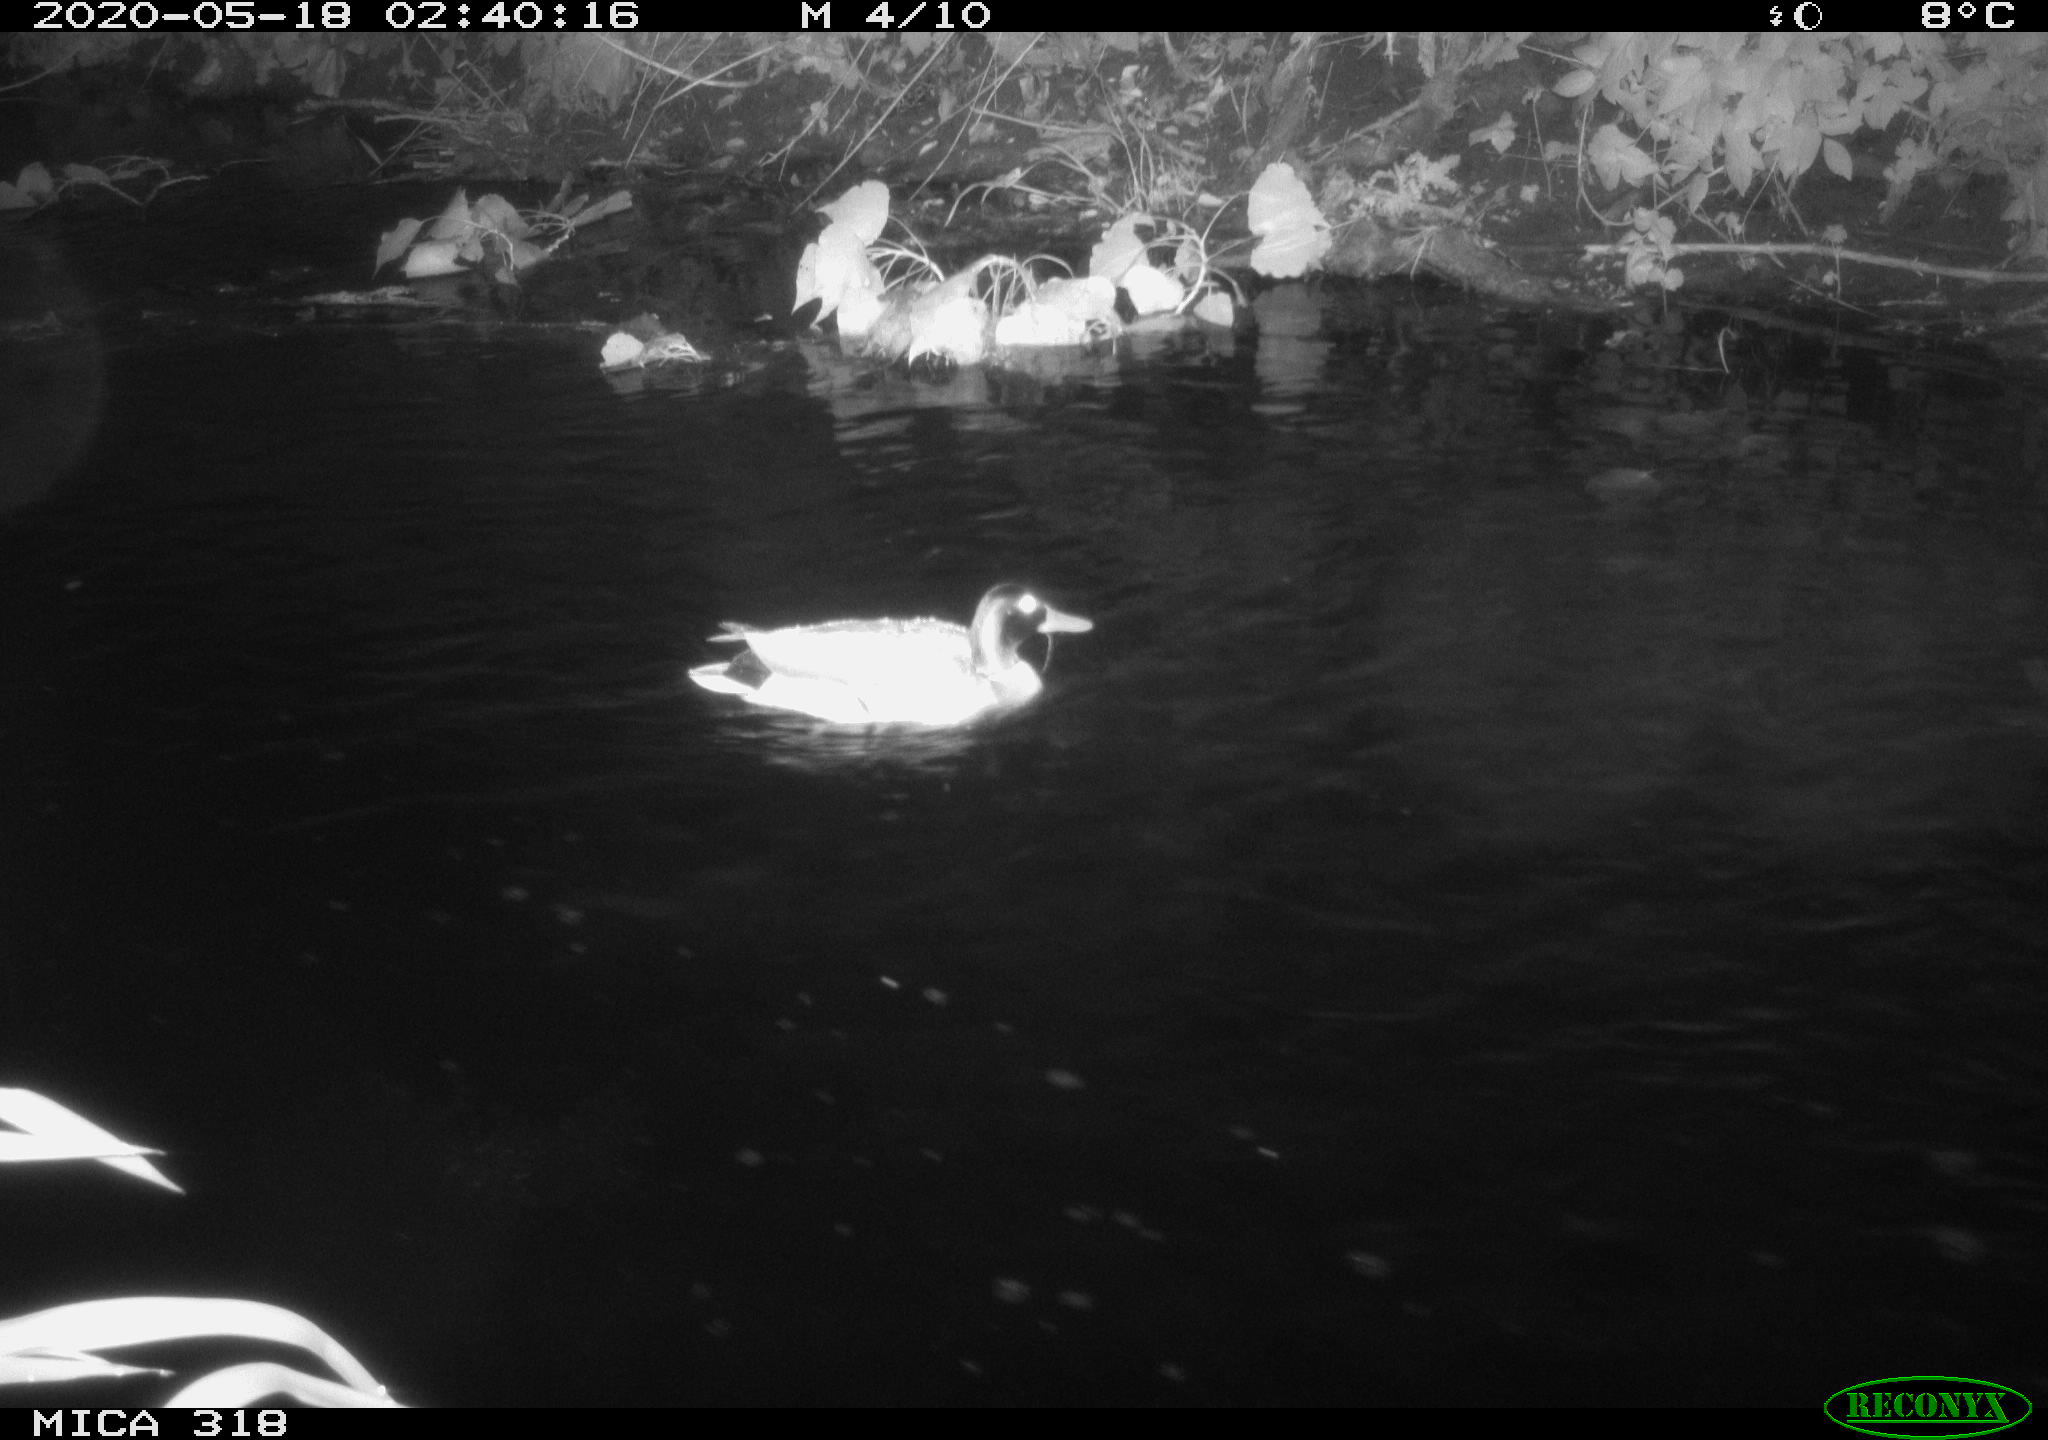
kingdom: Animalia
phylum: Chordata
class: Aves
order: Anseriformes
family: Anatidae
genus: Anas
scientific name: Anas platyrhynchos
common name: Mallard
